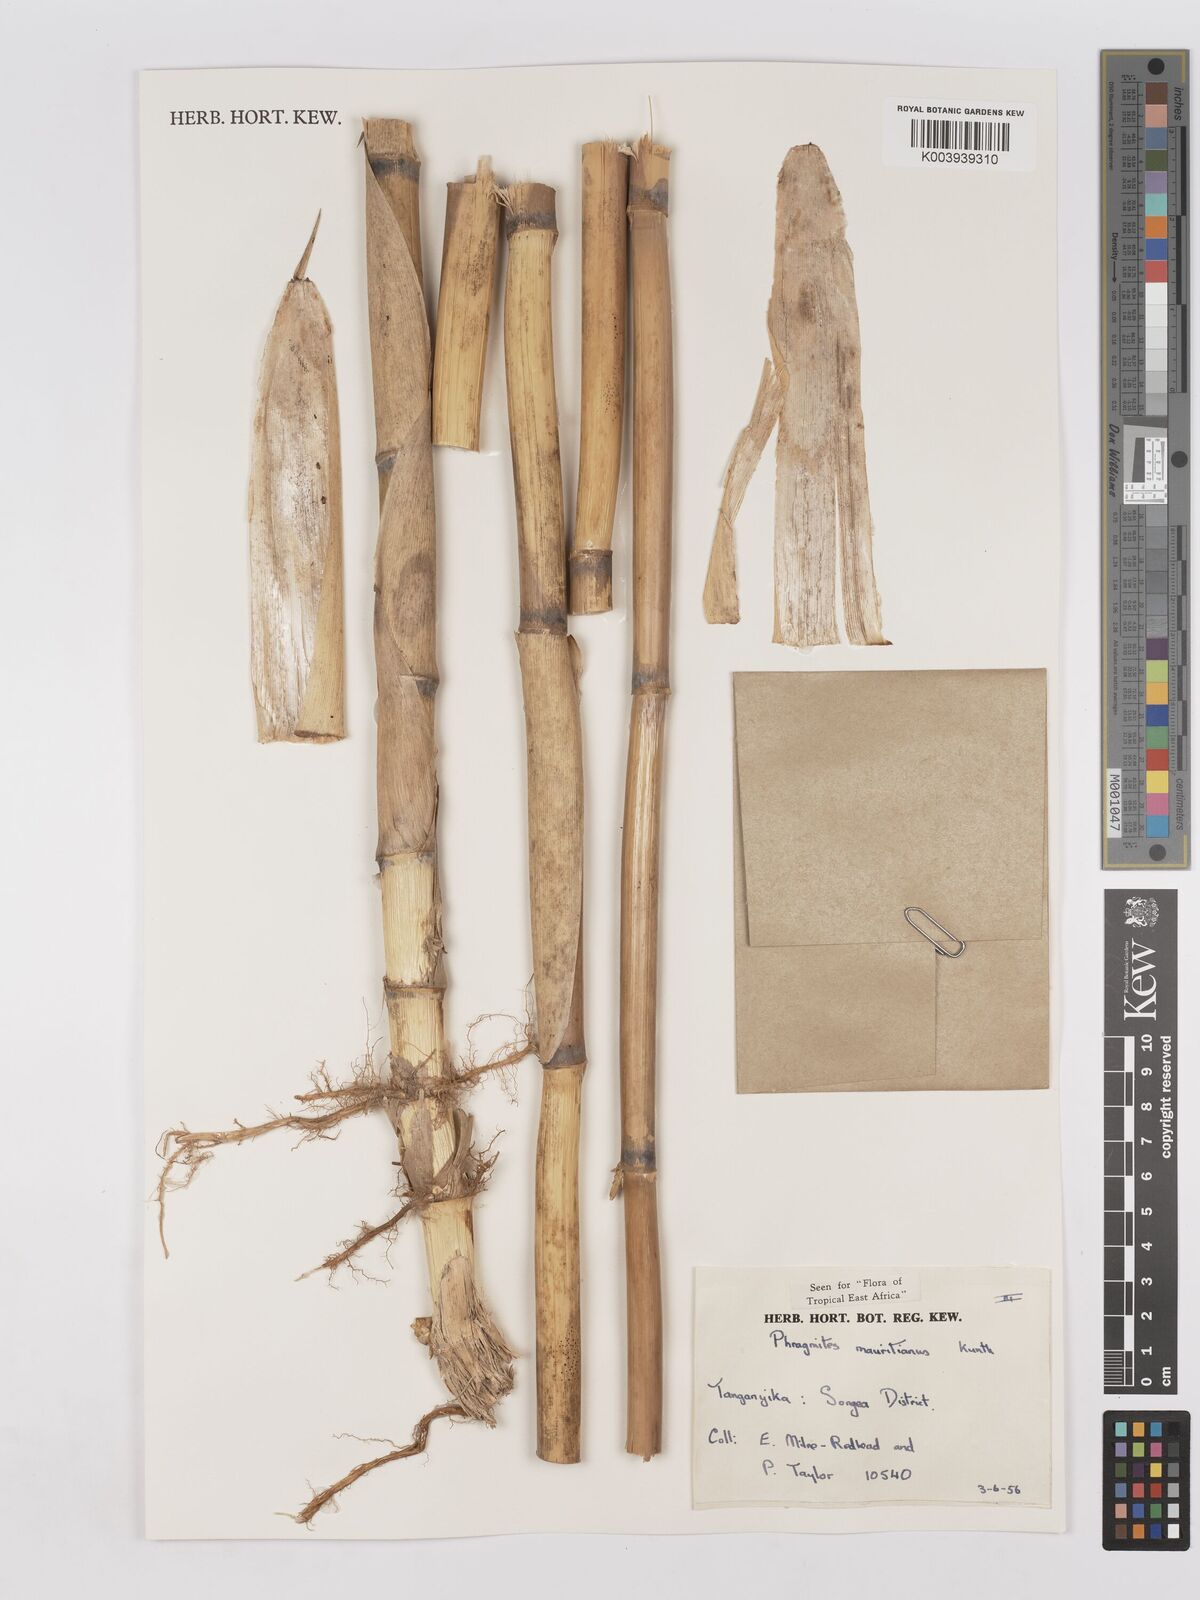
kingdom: Plantae
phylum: Tracheophyta
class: Liliopsida
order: Poales
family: Poaceae
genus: Phragmites
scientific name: Phragmites mauritianus
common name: Reed grass
